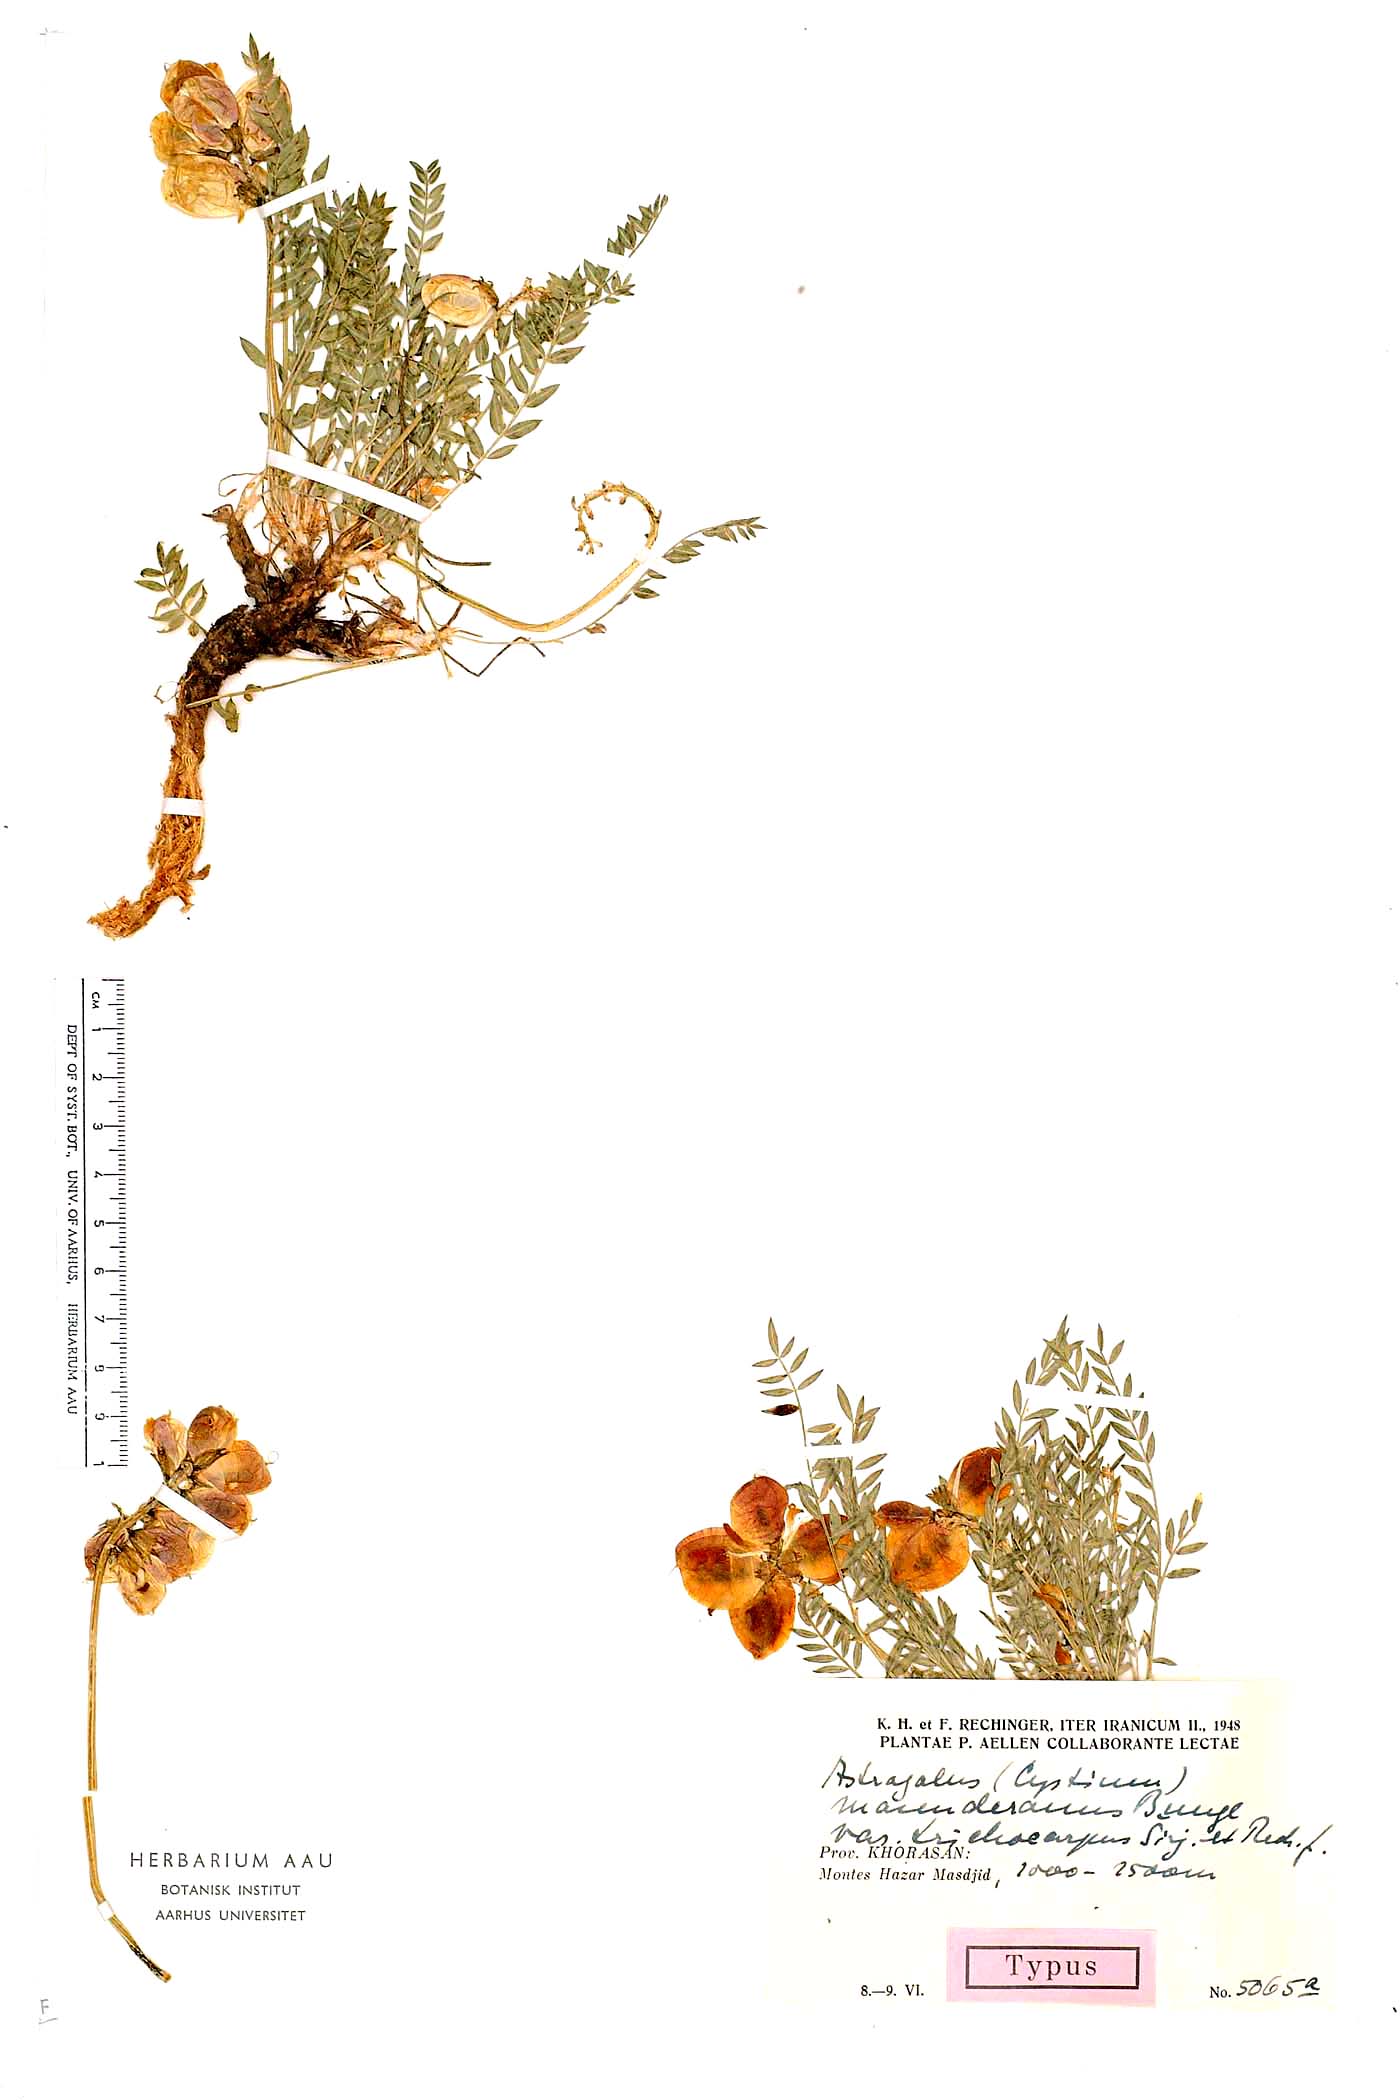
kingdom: Plantae
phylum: Tracheophyta
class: Magnoliopsida
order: Fabales
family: Fabaceae
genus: Astragalus
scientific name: Astragalus masanderanus
